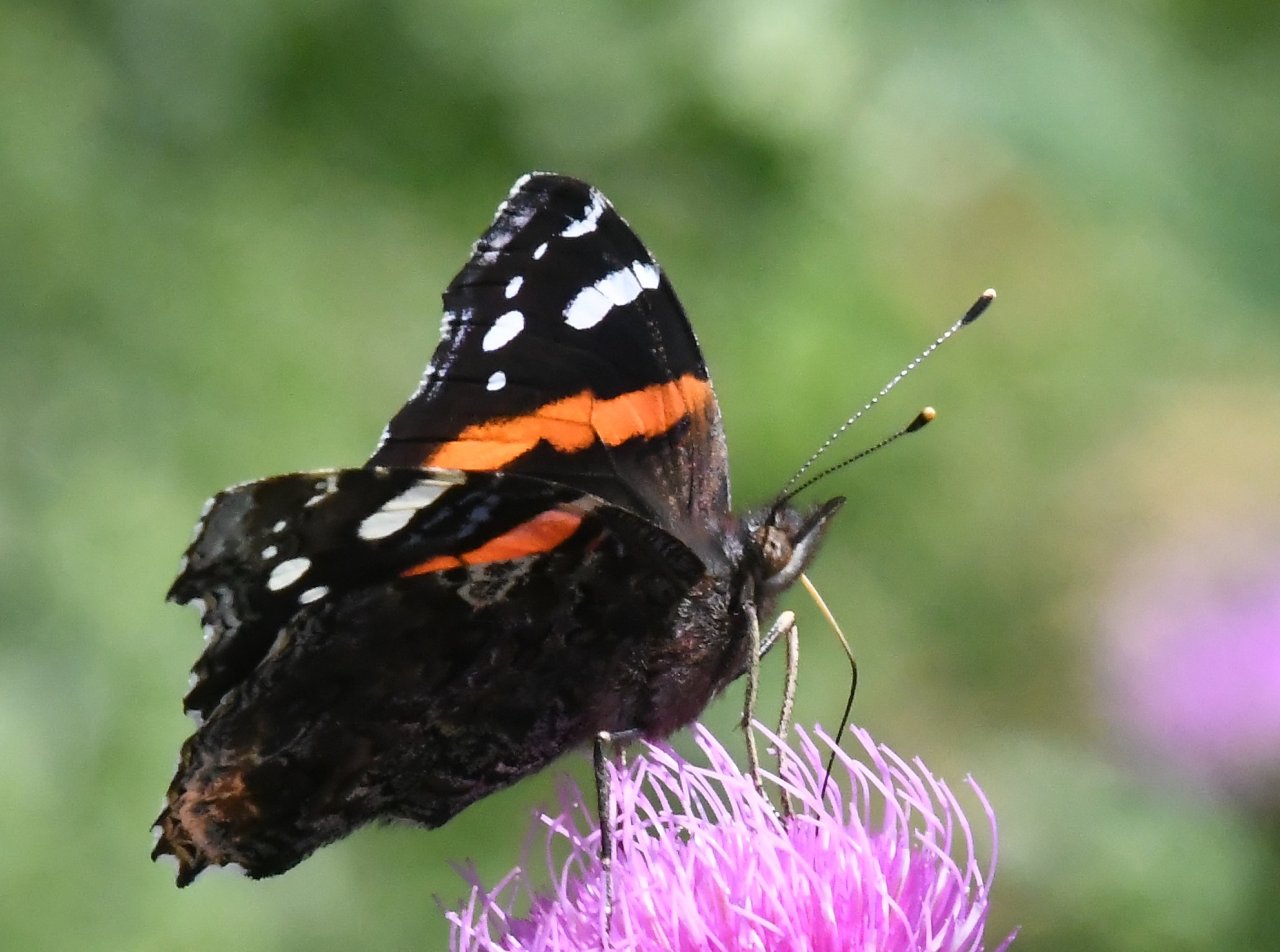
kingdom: Animalia
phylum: Arthropoda
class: Insecta
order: Lepidoptera
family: Nymphalidae
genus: Vanessa
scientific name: Vanessa atalanta
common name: Red Admiral
